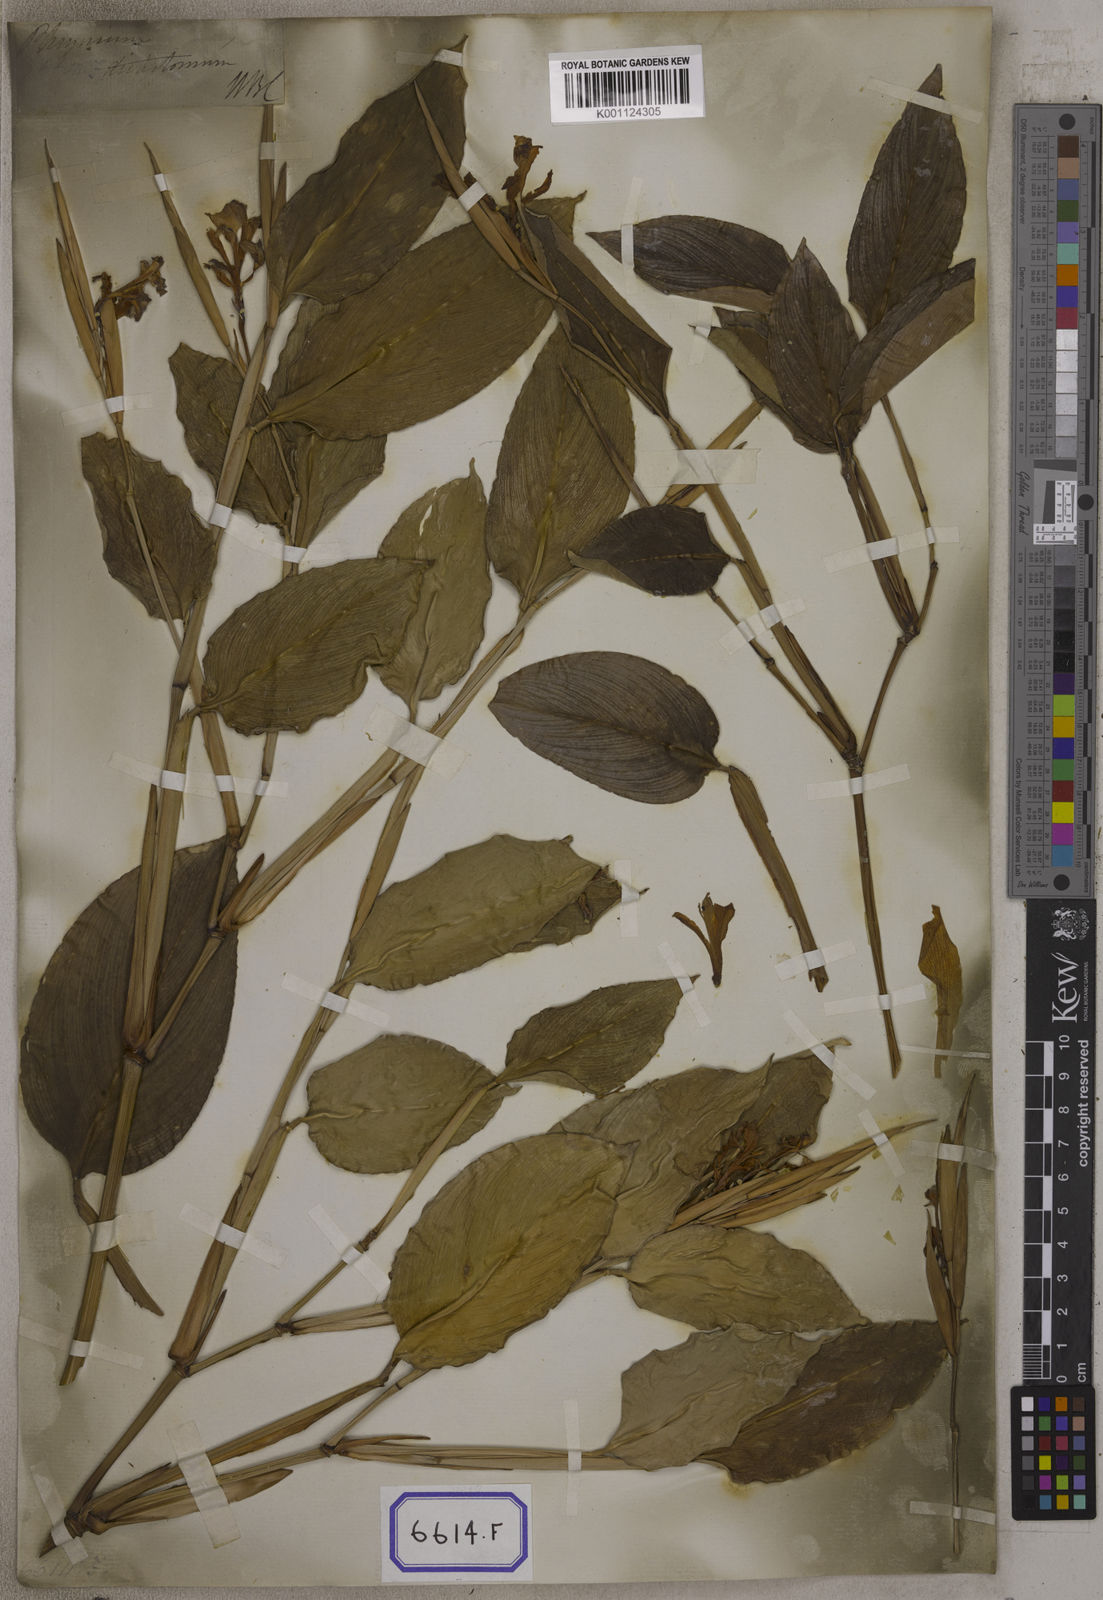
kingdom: Plantae
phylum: Tracheophyta
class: Liliopsida
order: Zingiberales
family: Marantaceae
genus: Maranta
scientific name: Maranta
